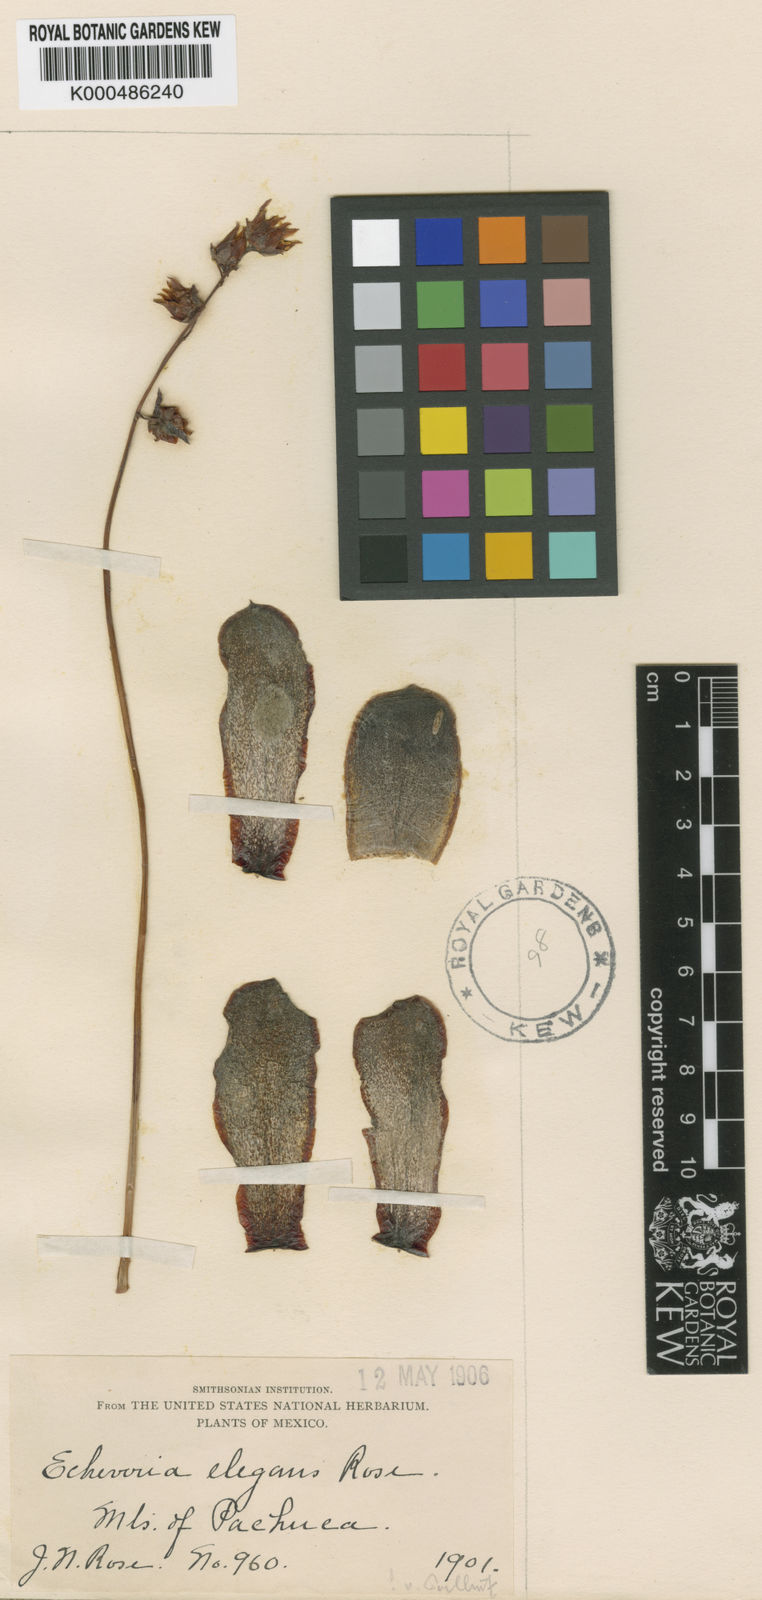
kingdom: Plantae
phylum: Tracheophyta
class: Magnoliopsida
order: Saxifragales
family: Crassulaceae
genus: Echeveria
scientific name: Echeveria harmsii
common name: Red echeveria
